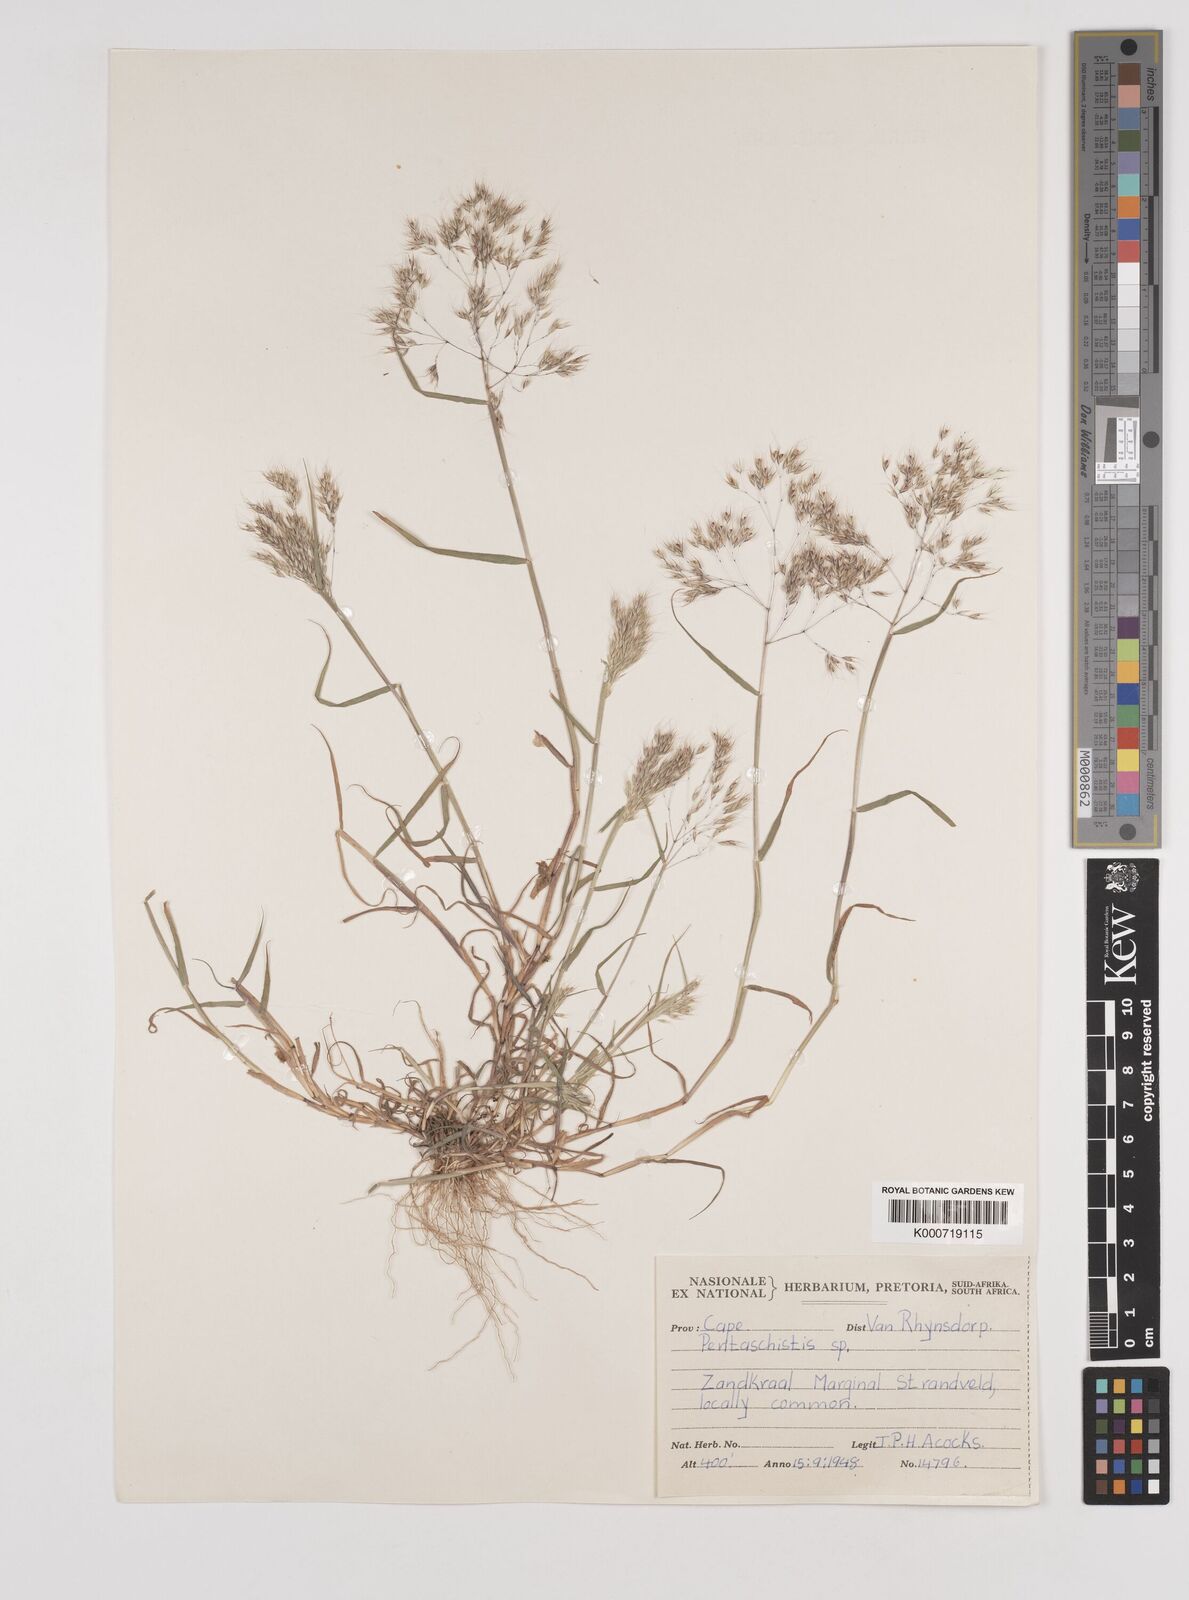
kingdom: Plantae
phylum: Tracheophyta
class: Liliopsida
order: Poales
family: Poaceae
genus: Pentameris
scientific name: Pentameris airoides
